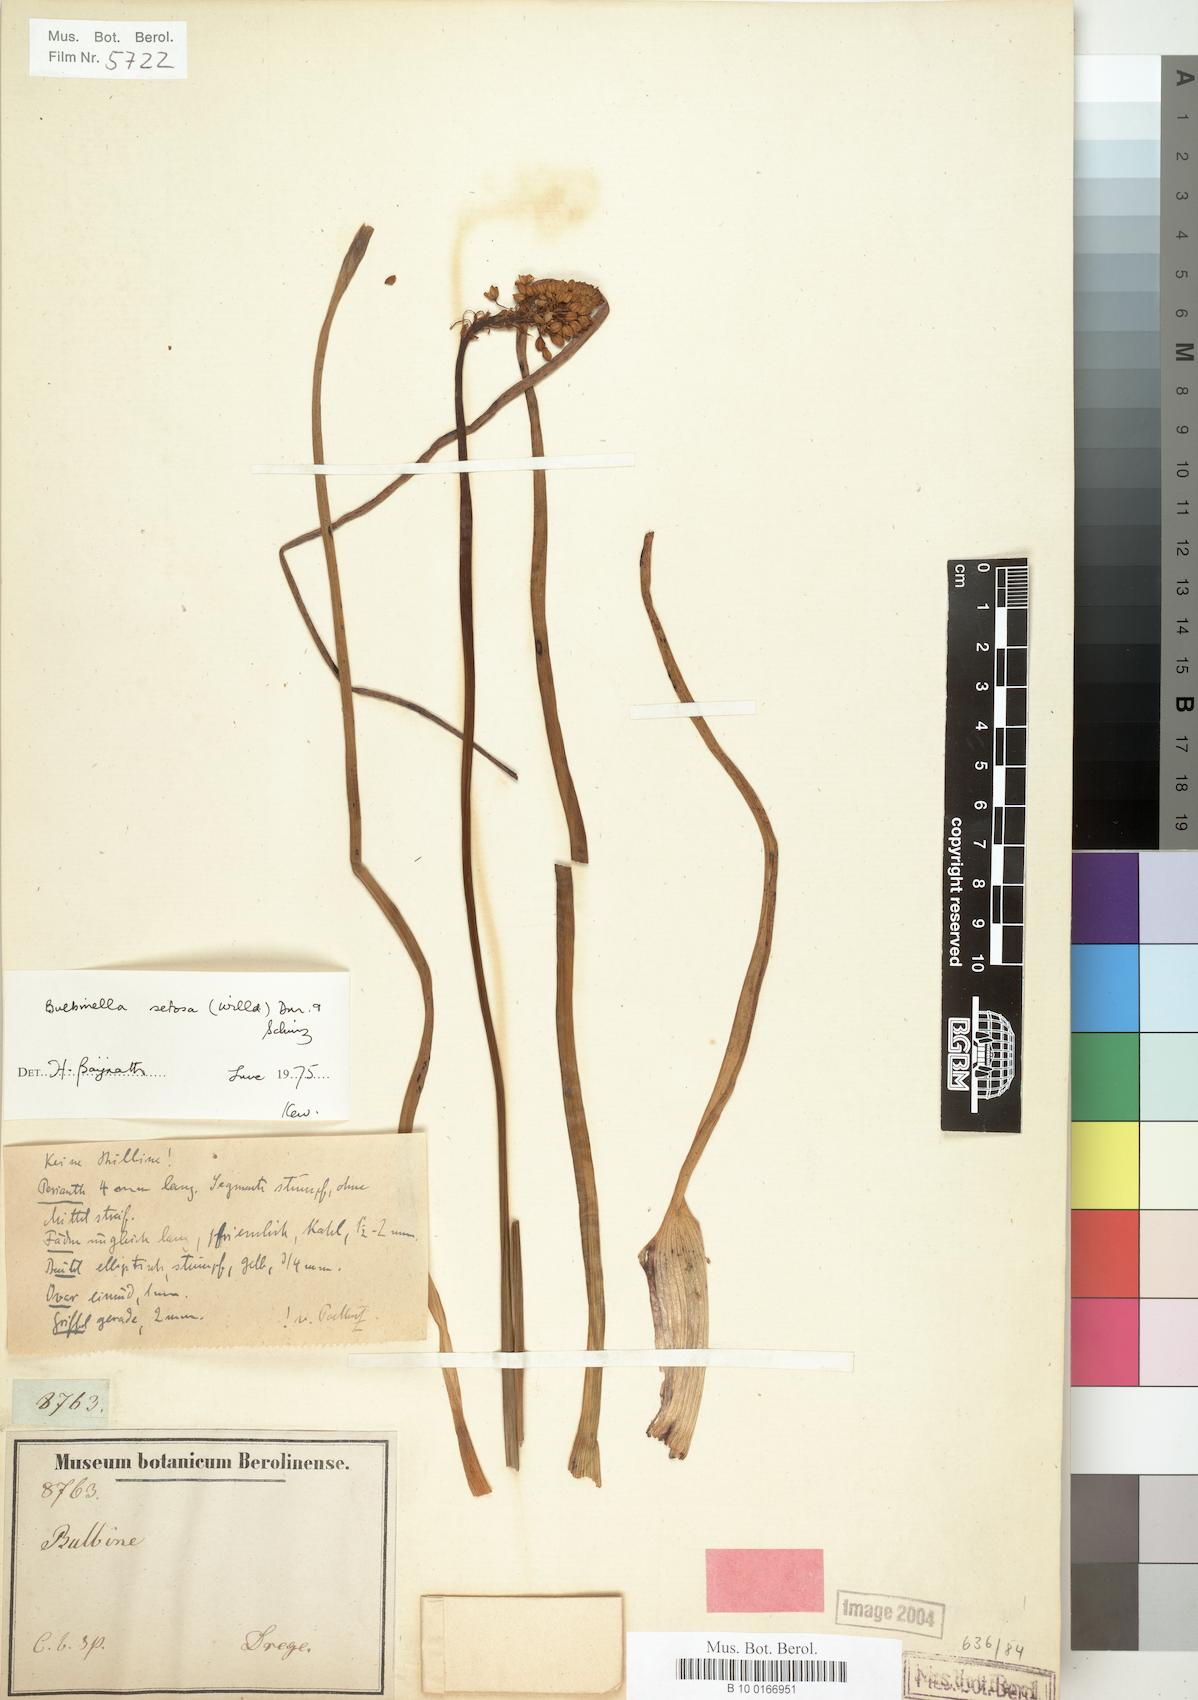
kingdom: Plantae
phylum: Tracheophyta
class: Liliopsida
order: Asparagales
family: Asphodelaceae
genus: Bulbinella
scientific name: Bulbinella nutans
